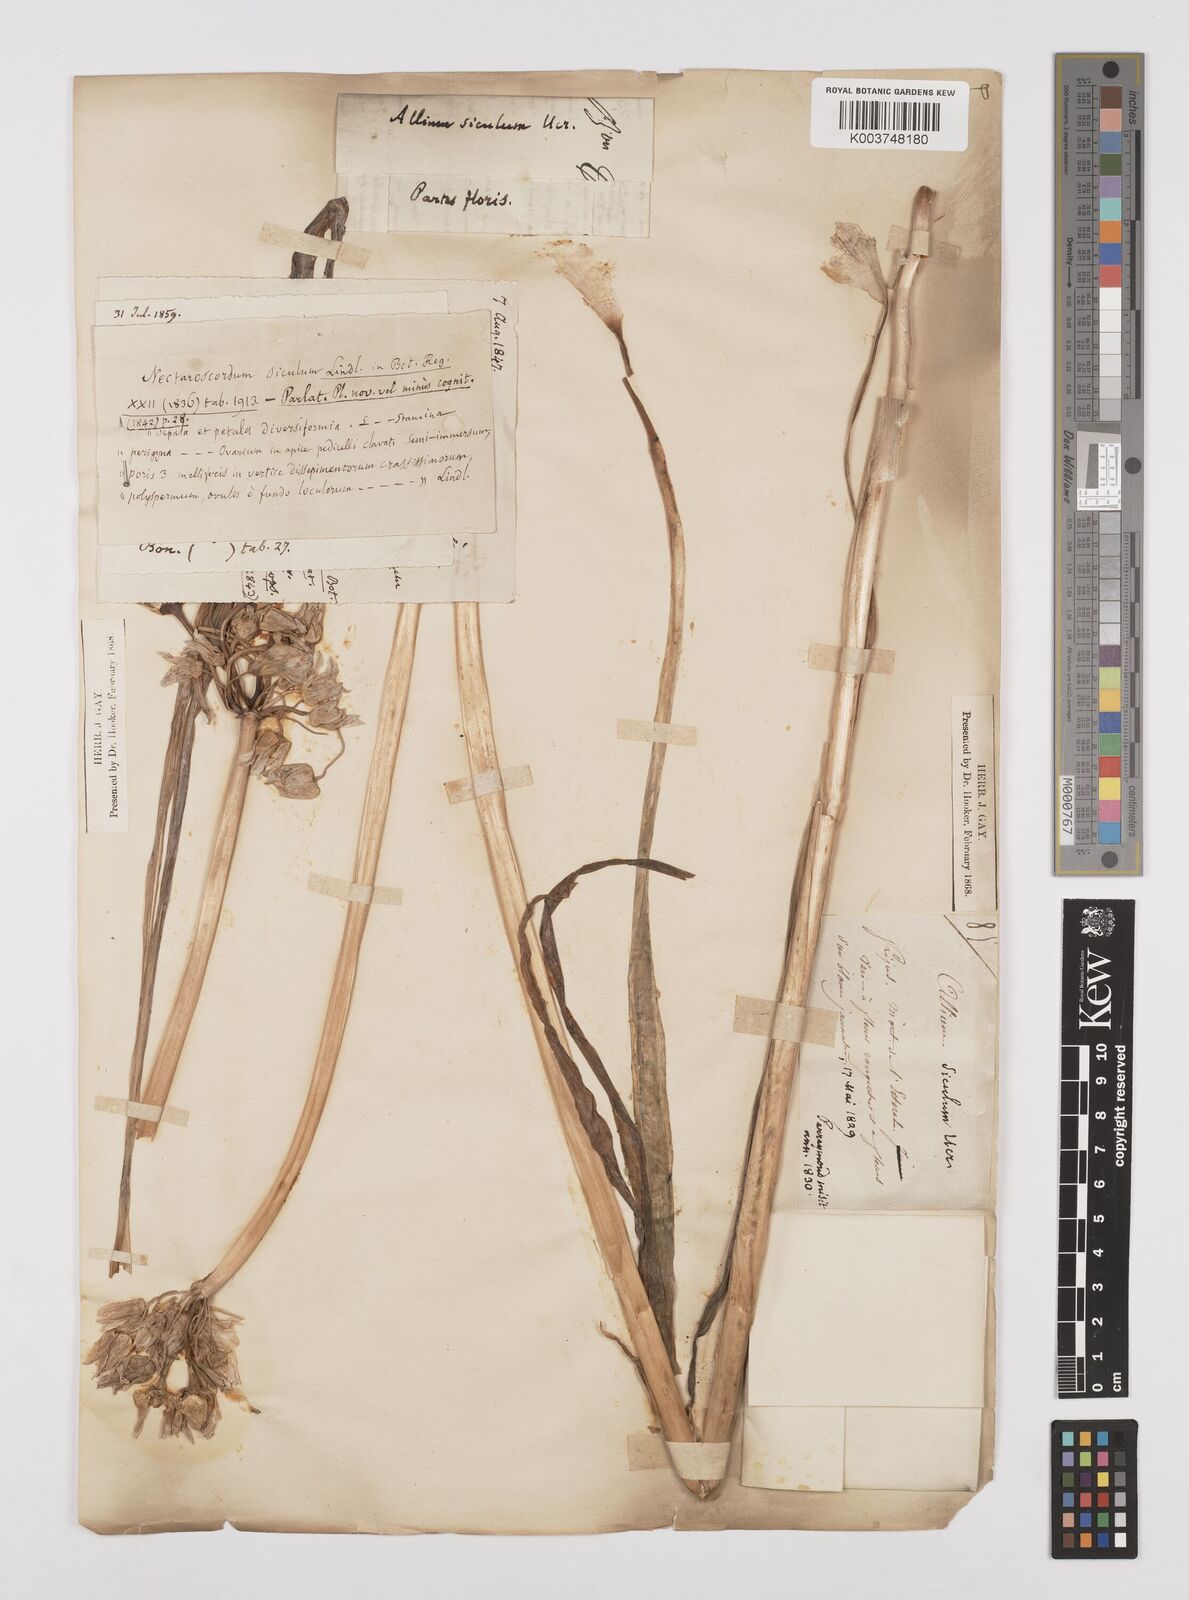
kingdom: Plantae
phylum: Tracheophyta
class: Liliopsida
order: Asparagales
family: Amaryllidaceae
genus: Allium
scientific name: Allium siculum
